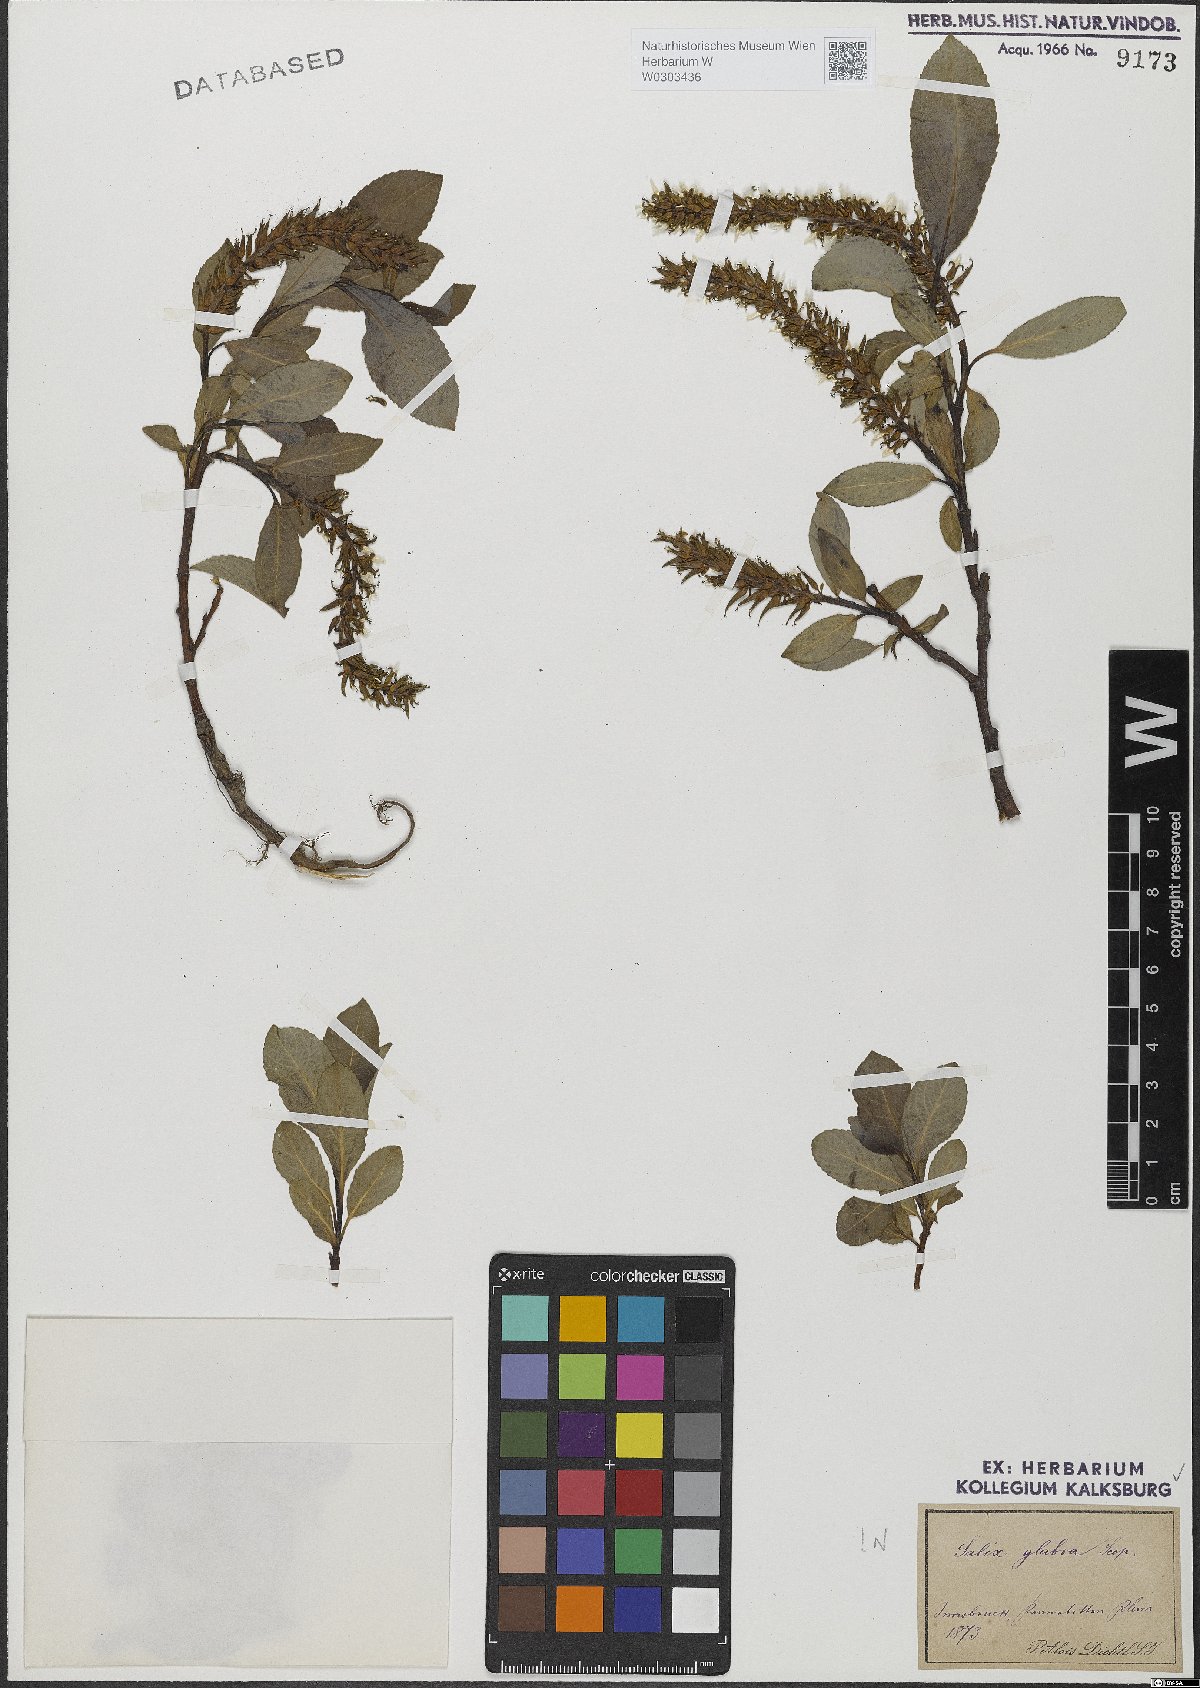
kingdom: Plantae
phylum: Tracheophyta
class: Magnoliopsida
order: Malpighiales
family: Salicaceae
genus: Salix
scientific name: Salix glabra
